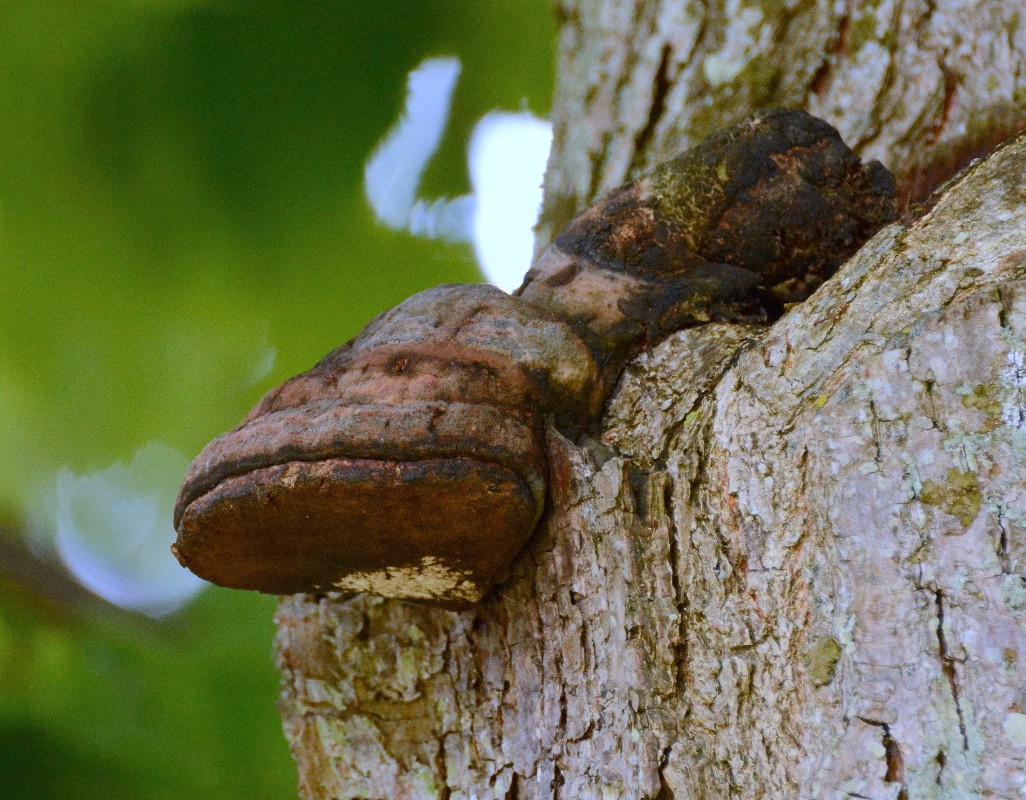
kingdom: Fungi
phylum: Basidiomycota
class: Agaricomycetes
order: Polyporales
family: Polyporaceae
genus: Ganoderma
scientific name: Ganoderma
